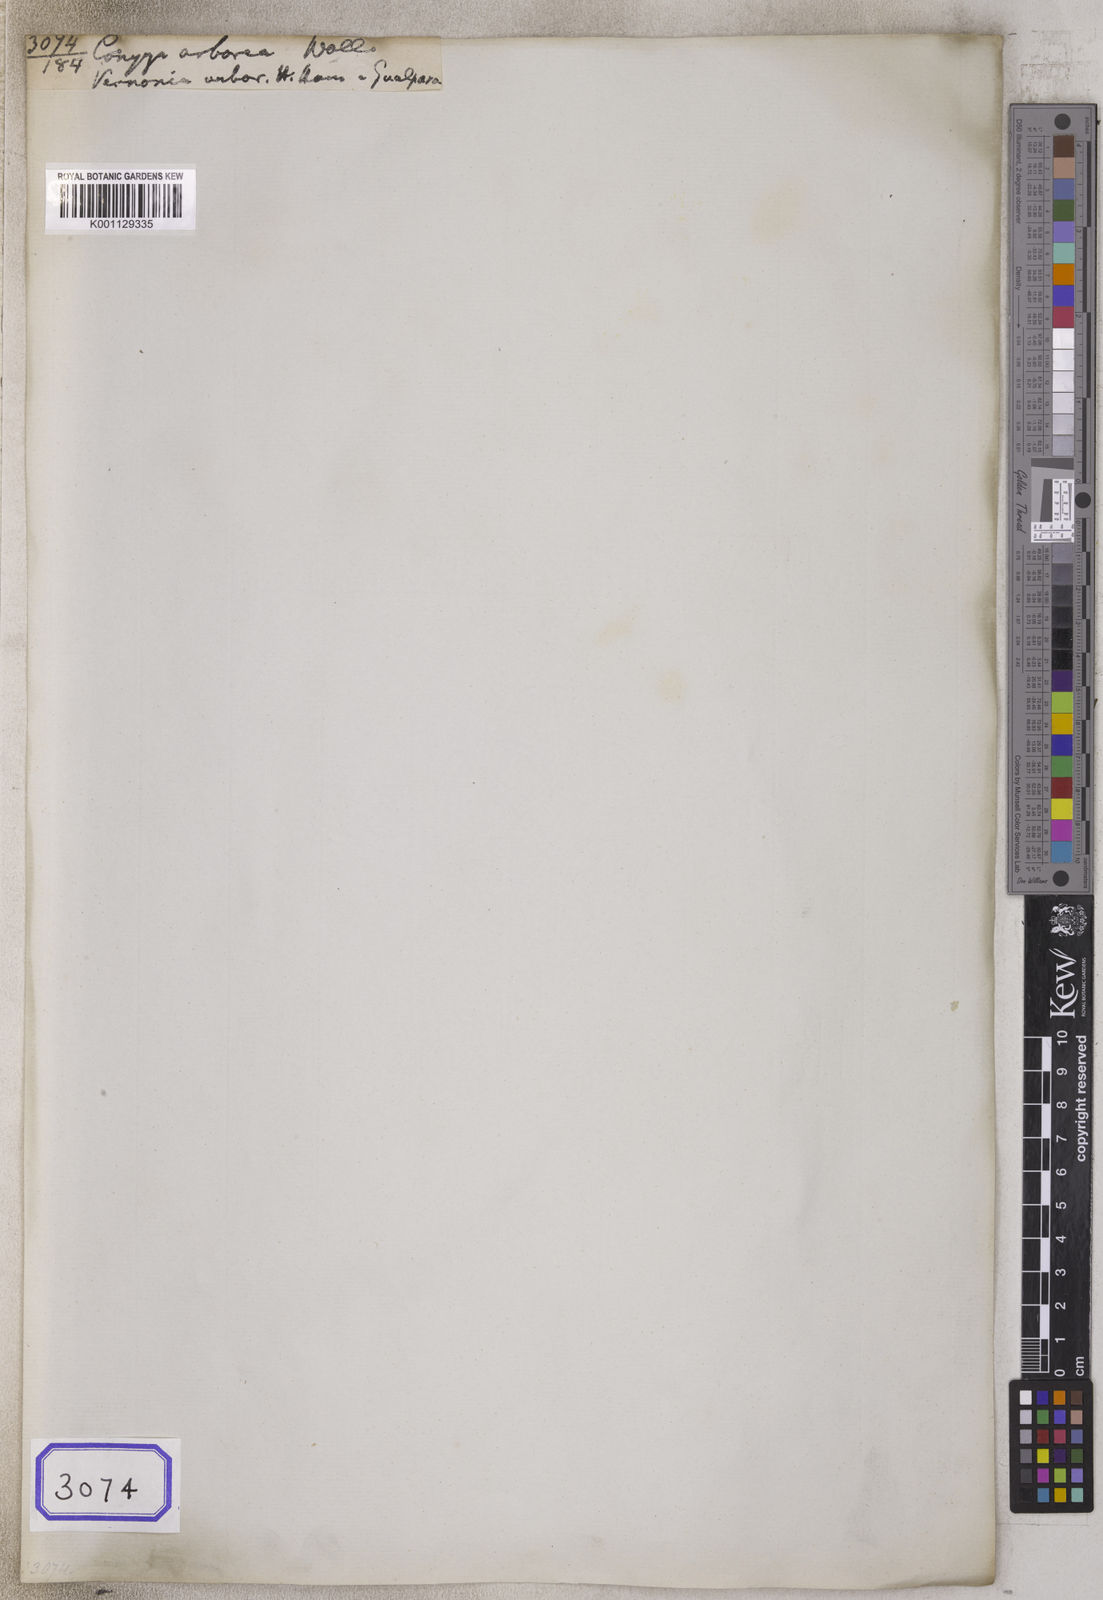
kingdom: Plantae
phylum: Tracheophyta
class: Magnoliopsida
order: Asterales
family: Asteraceae
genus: Strobocalyx
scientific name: Strobocalyx arborea
